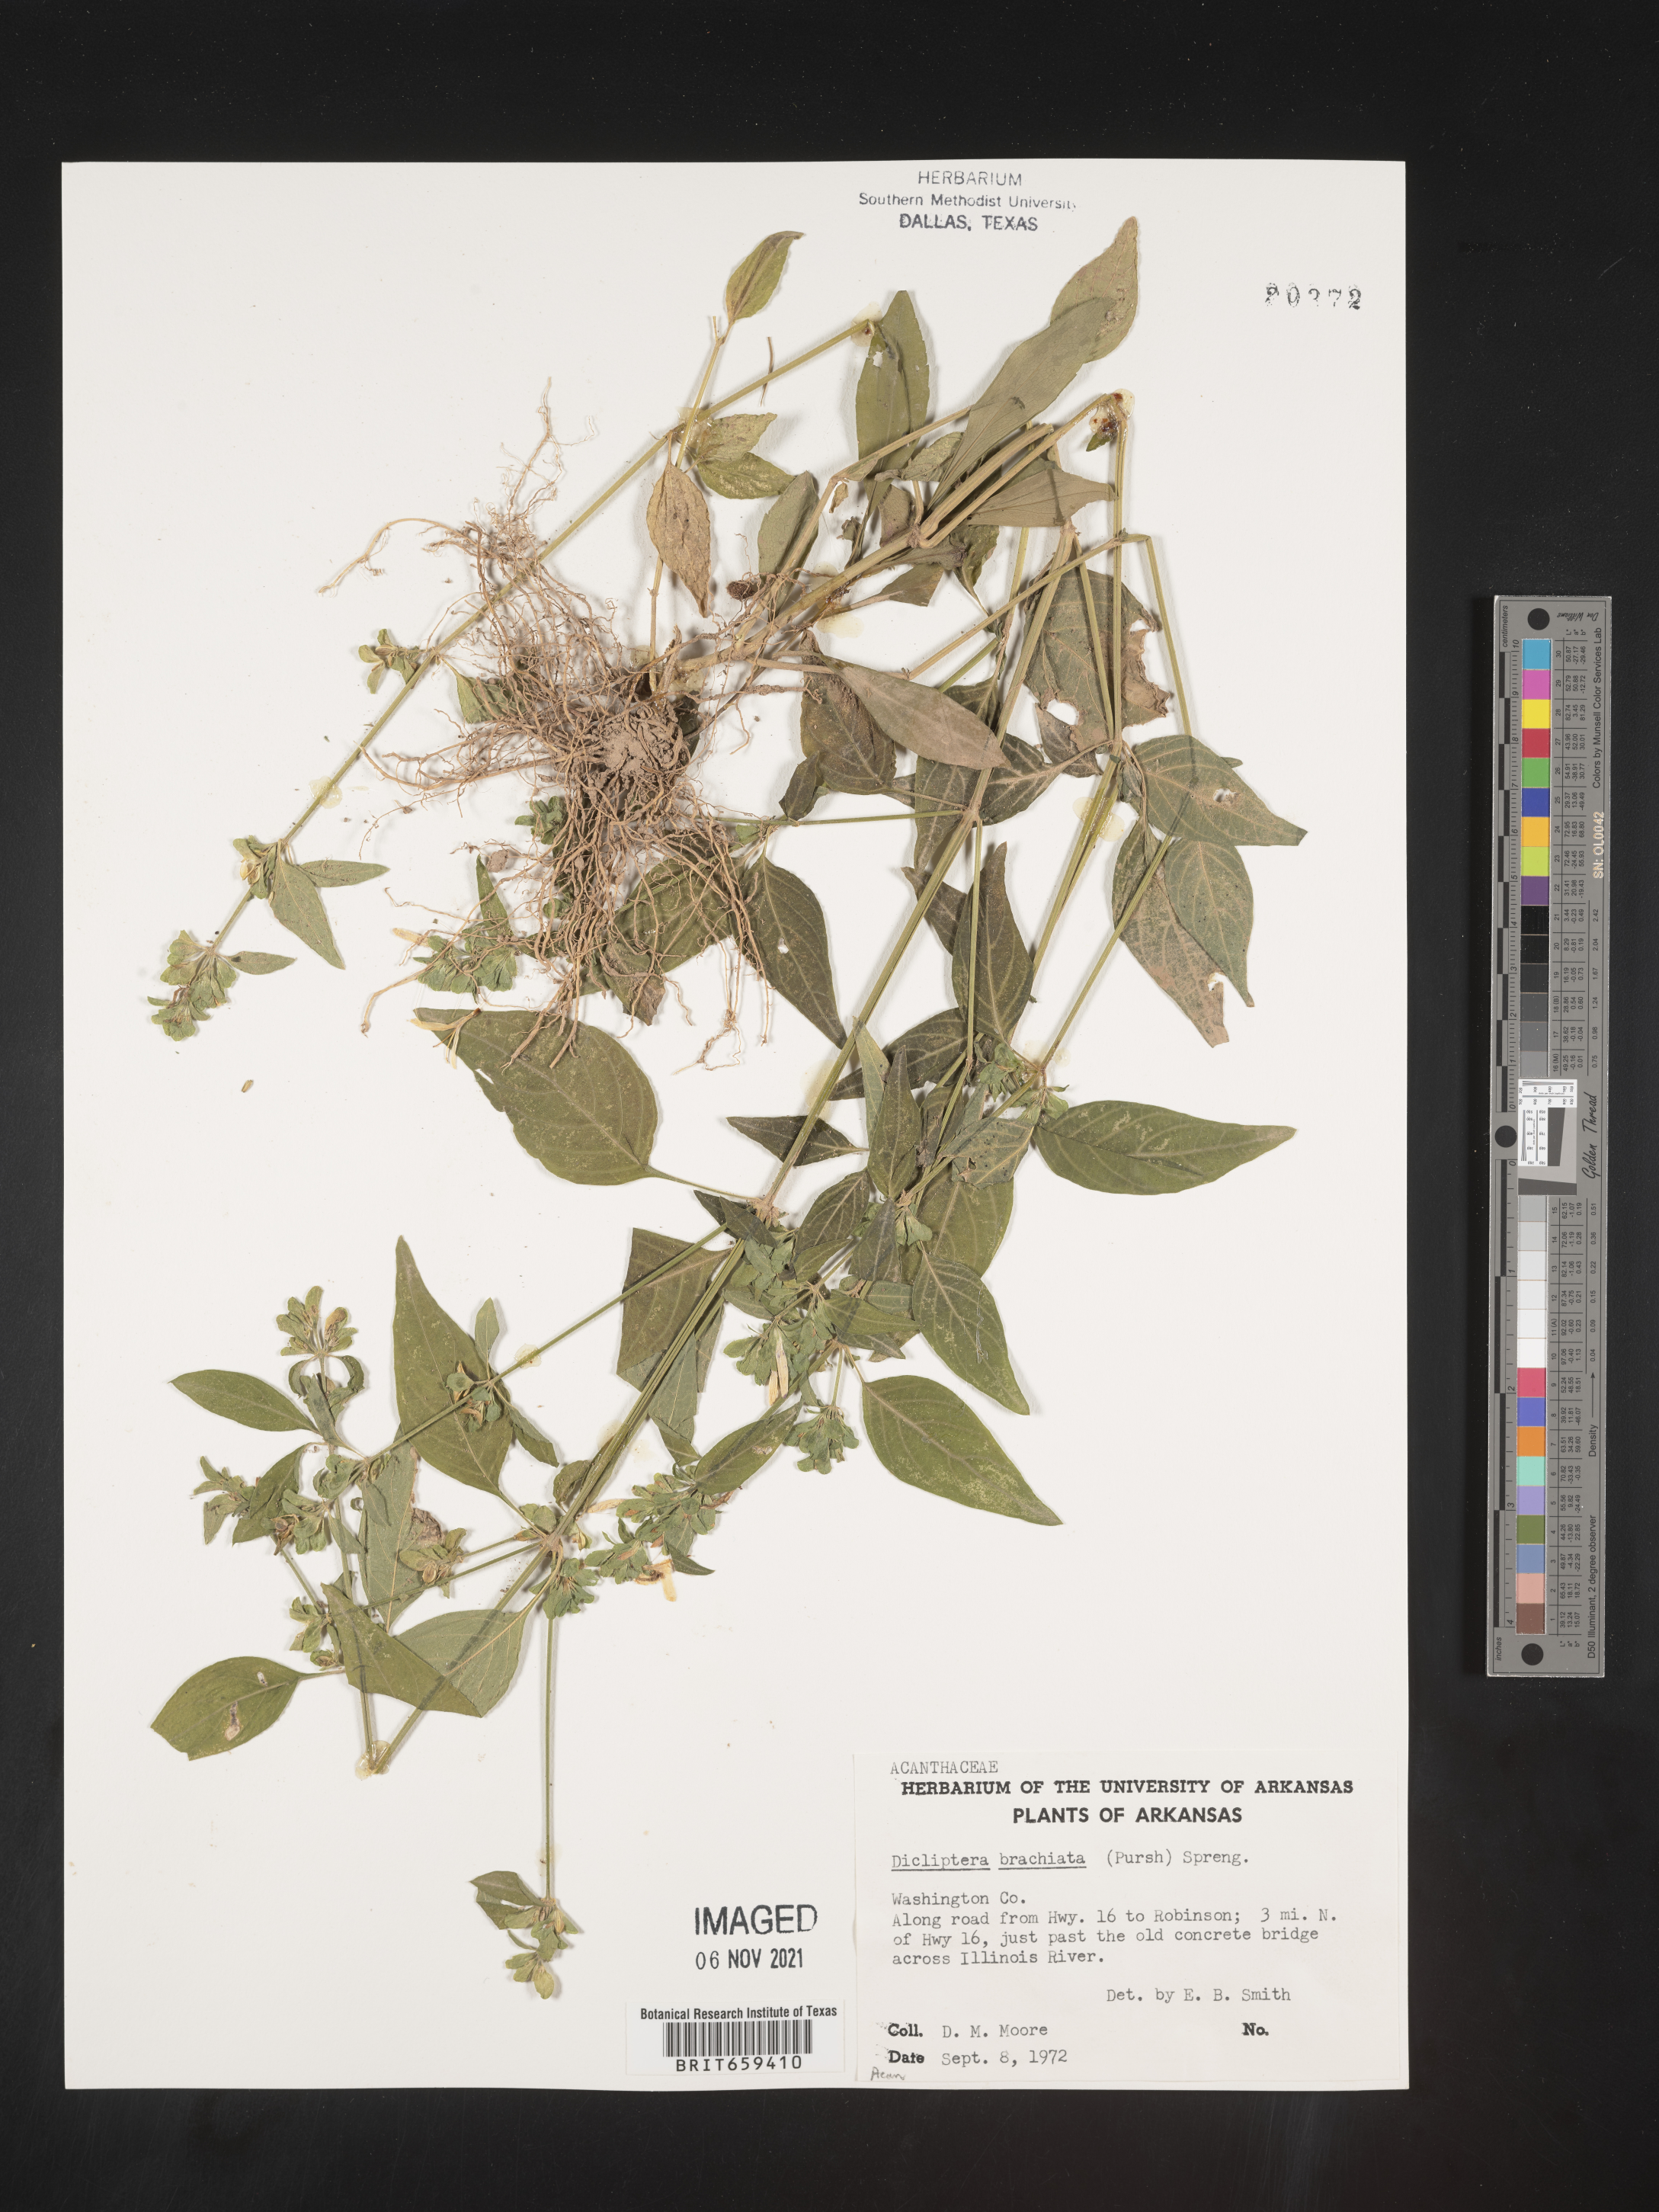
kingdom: Plantae
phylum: Tracheophyta
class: Magnoliopsida
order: Lamiales
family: Acanthaceae
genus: Dicliptera
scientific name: Dicliptera brachiata
